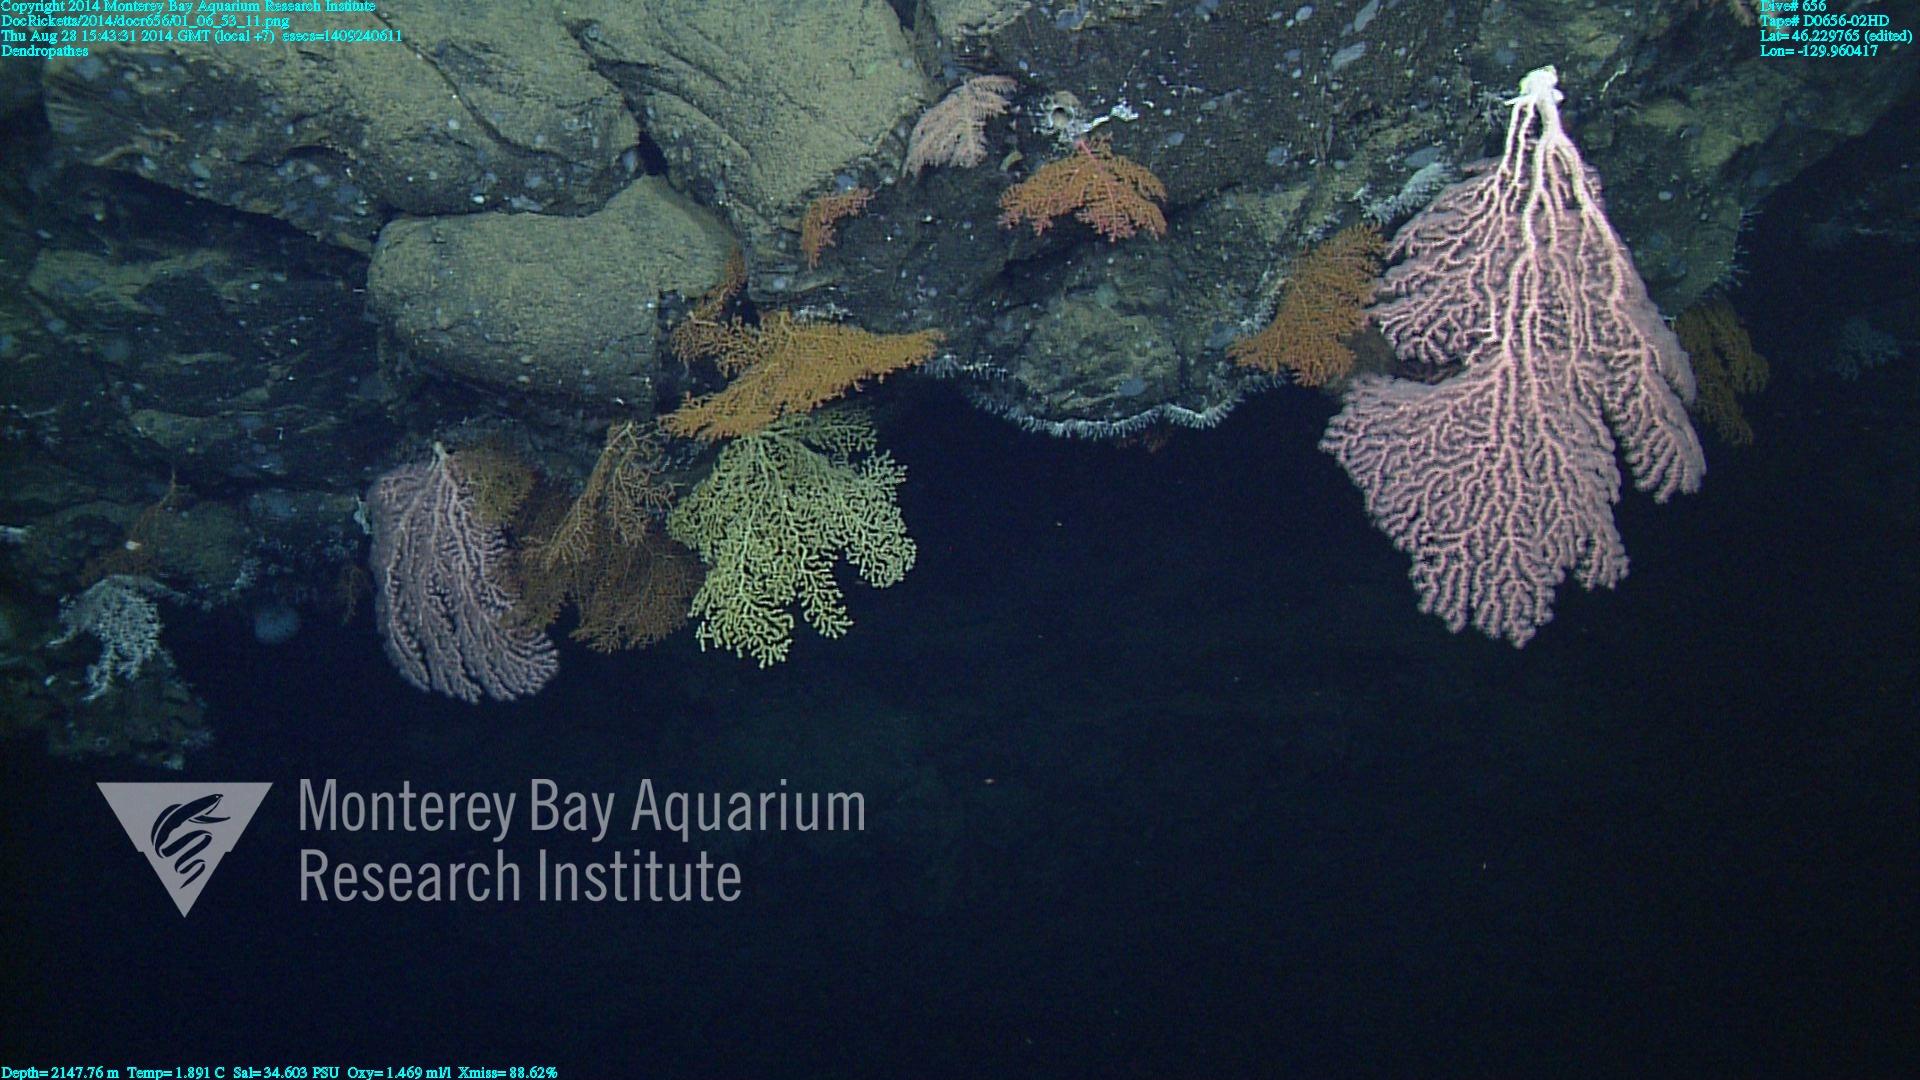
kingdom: Animalia
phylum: Cnidaria
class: Anthozoa
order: Antipatharia
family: Schizopathidae
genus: Dendropathes
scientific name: Dendropathes
